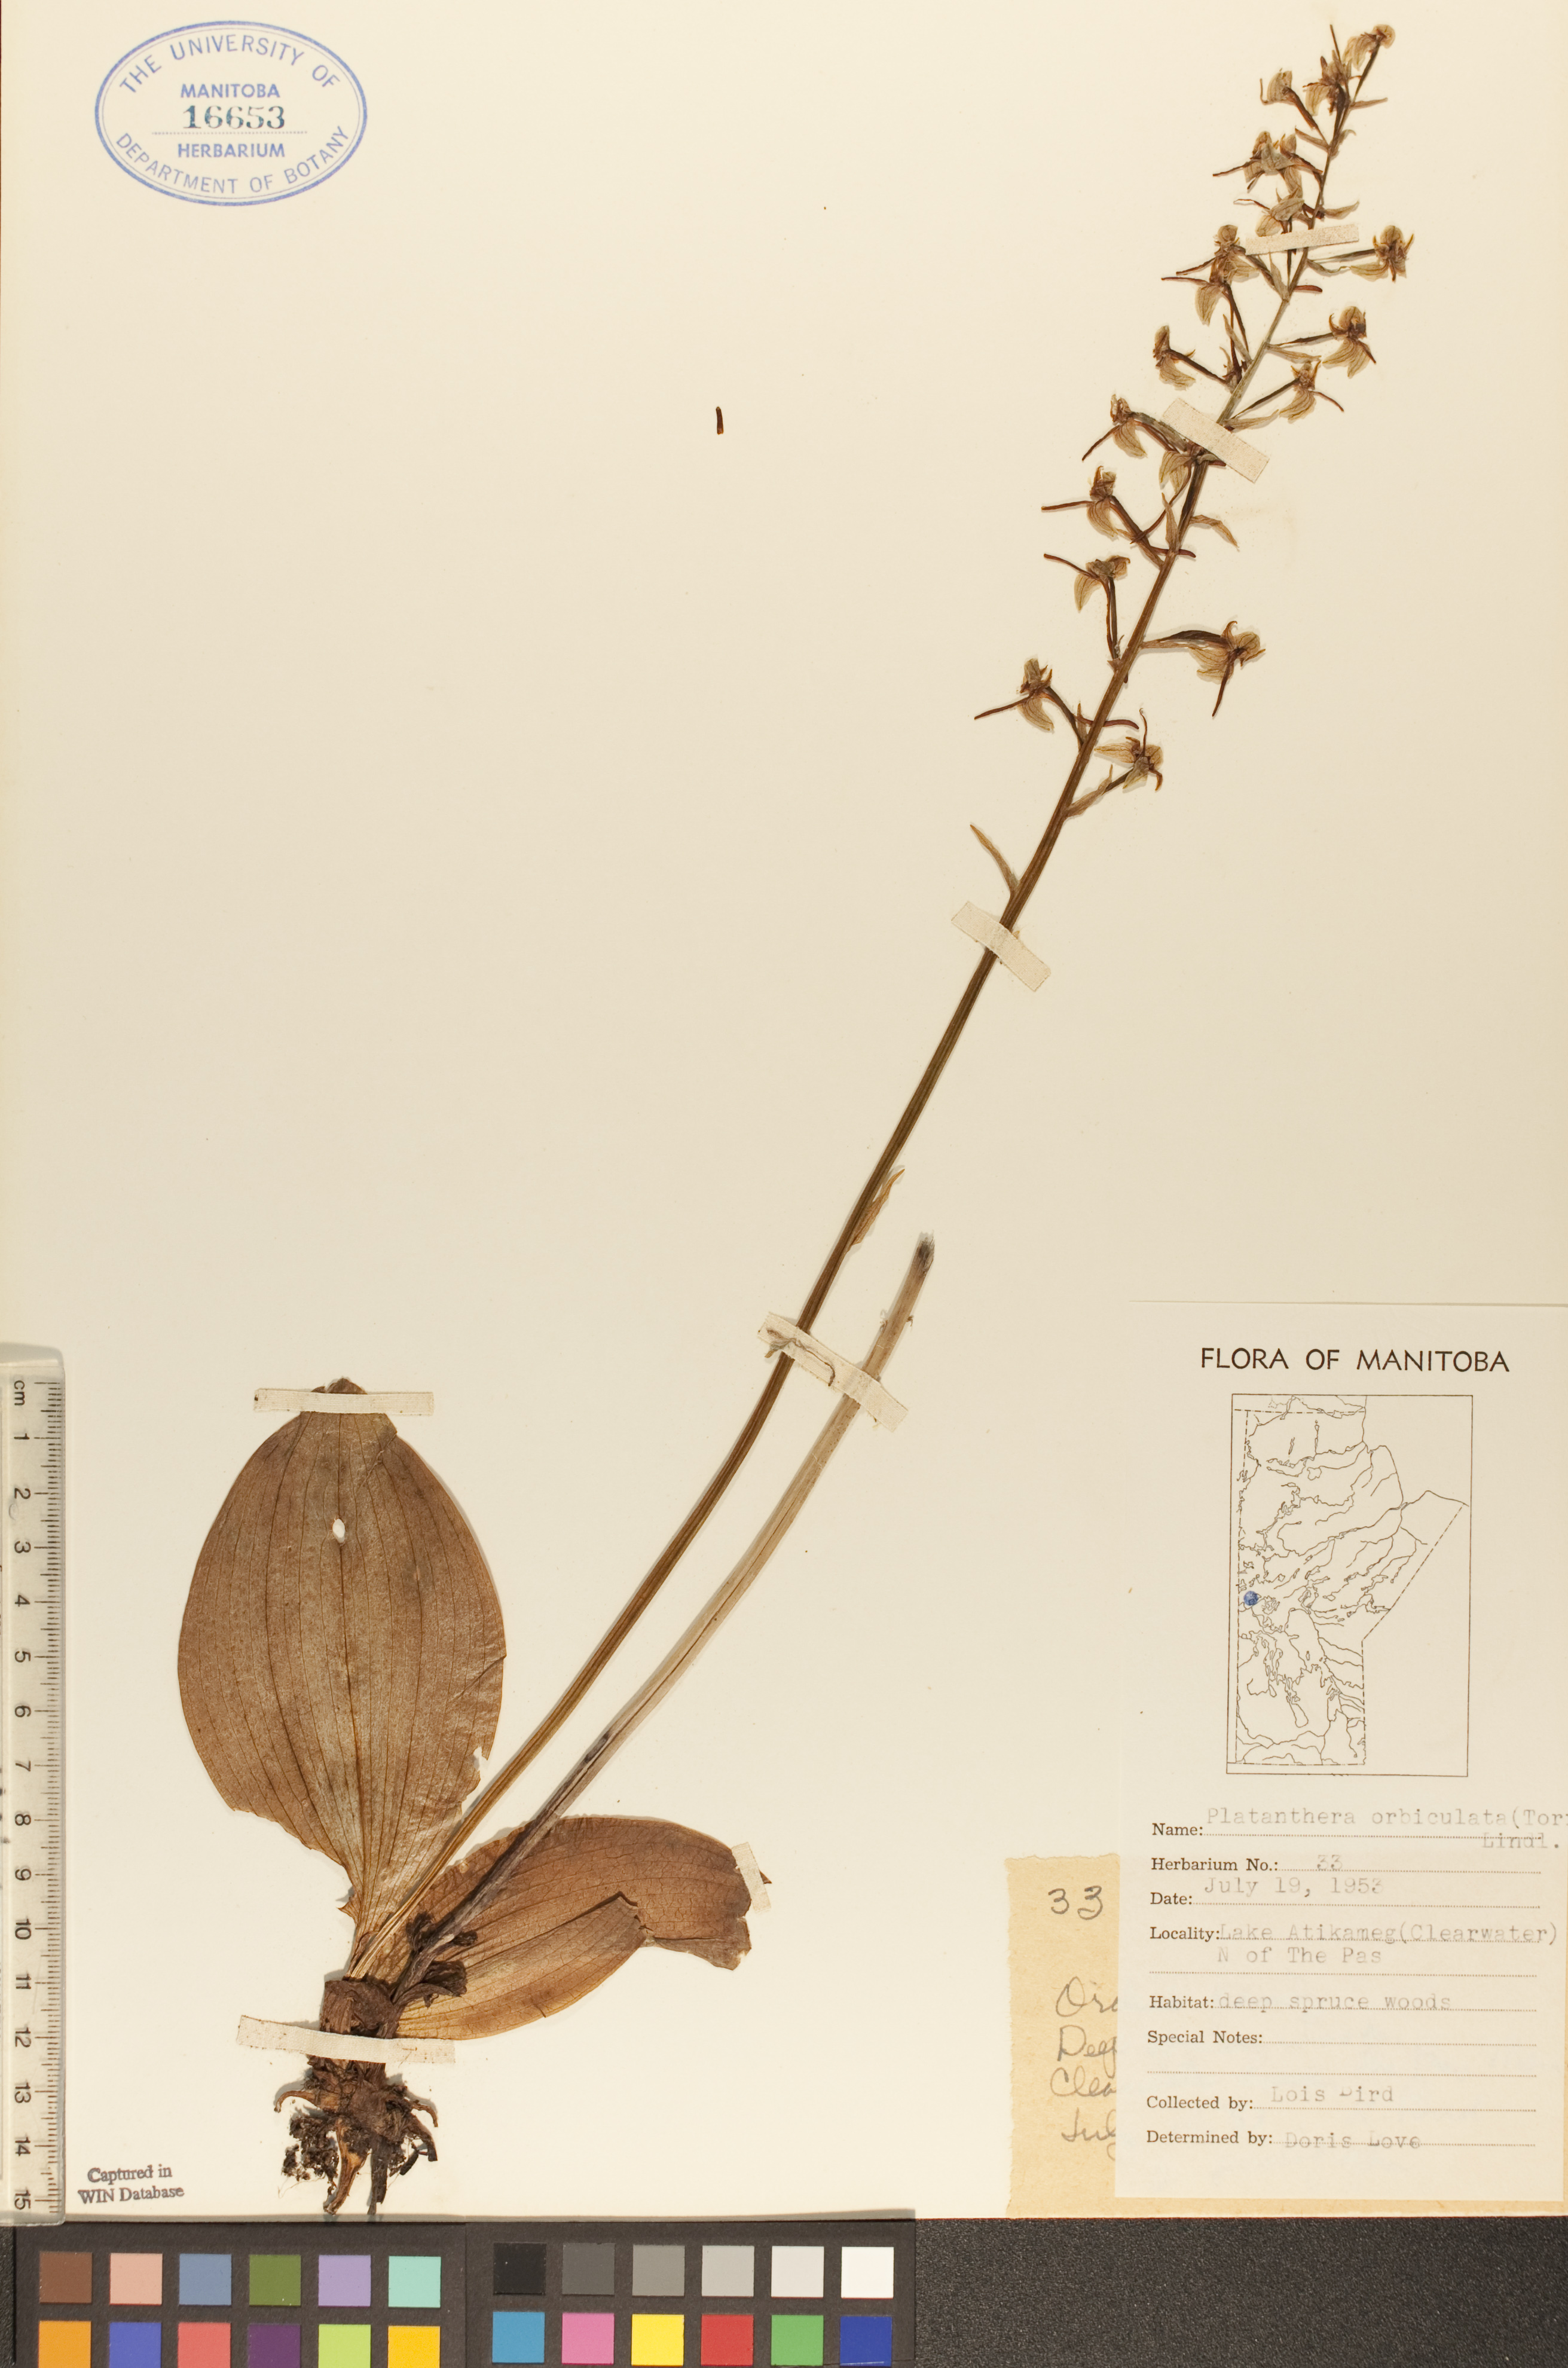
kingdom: Plantae
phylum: Tracheophyta
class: Liliopsida
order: Asparagales
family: Orchidaceae
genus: Platanthera
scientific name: Platanthera orbiculata
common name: Large round-leaved orchid
